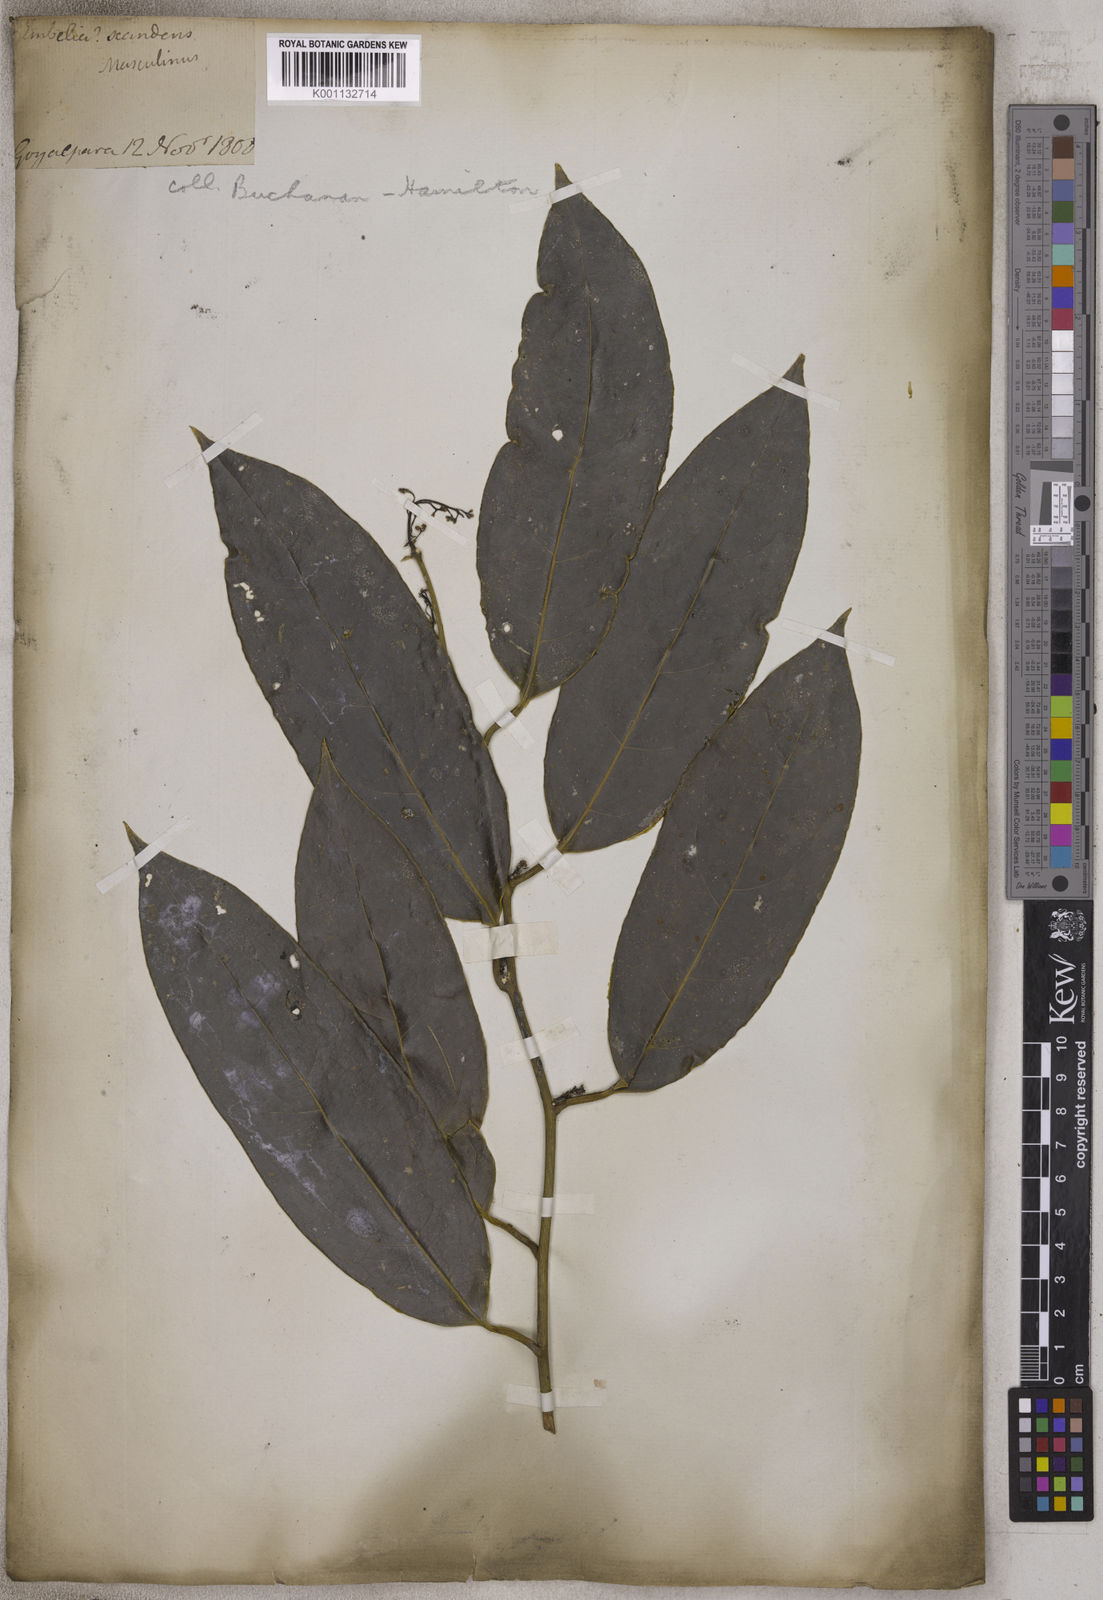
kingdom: Plantae
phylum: Tracheophyta
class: Magnoliopsida
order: Ericales
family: Primulaceae
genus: Embelia
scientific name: Embelia scandens
